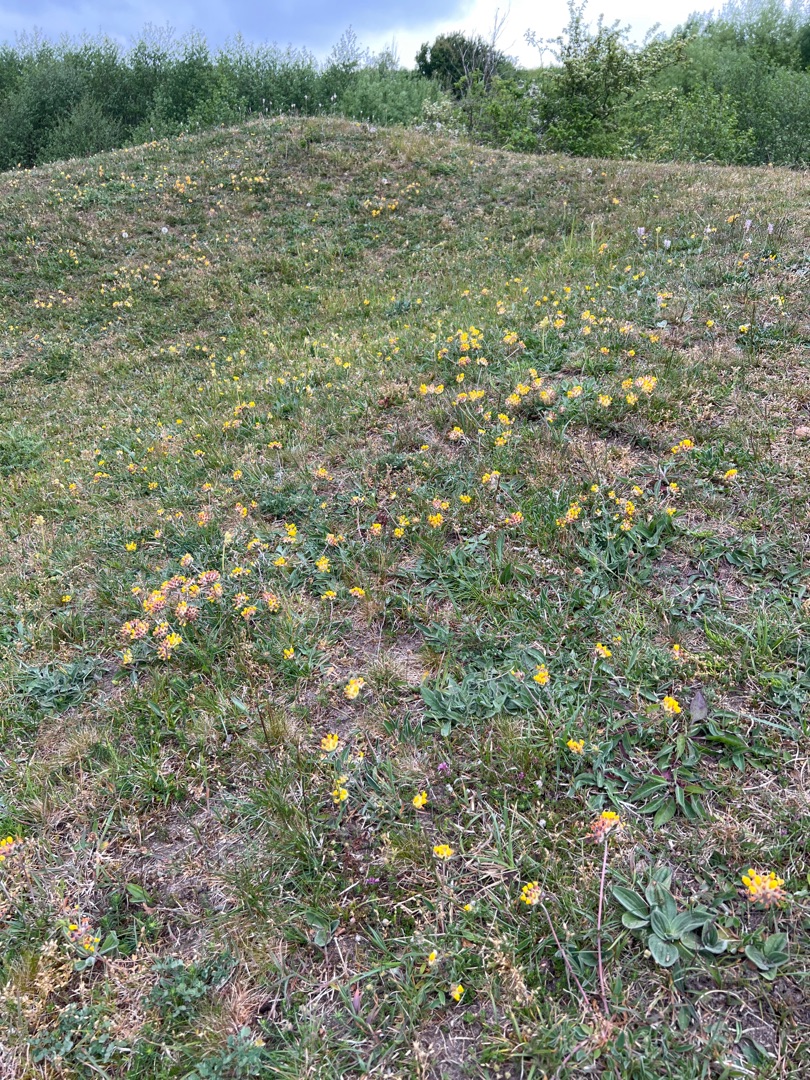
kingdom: Plantae
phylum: Tracheophyta
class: Magnoliopsida
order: Fabales
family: Fabaceae
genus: Anthyllis
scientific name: Anthyllis vulneraria
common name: Rundbælg
